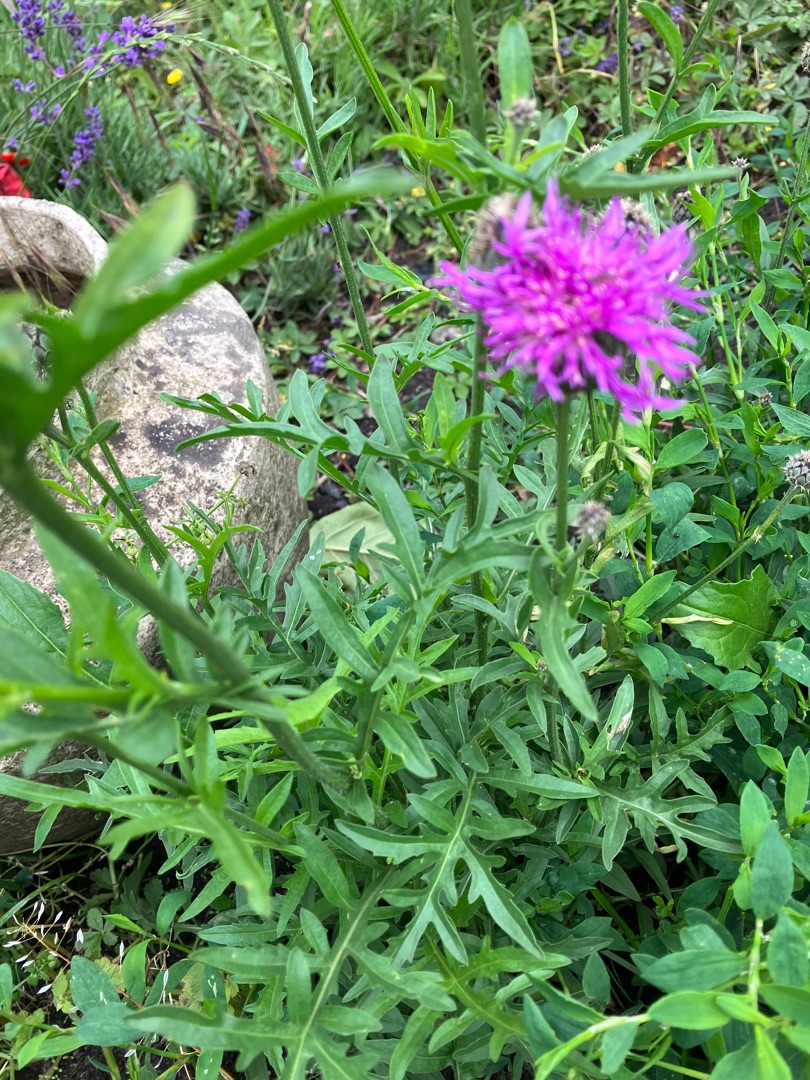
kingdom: Plantae
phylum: Tracheophyta
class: Magnoliopsida
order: Asterales
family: Asteraceae
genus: Centaurea
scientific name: Centaurea scabiosa
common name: Stor knopurt
